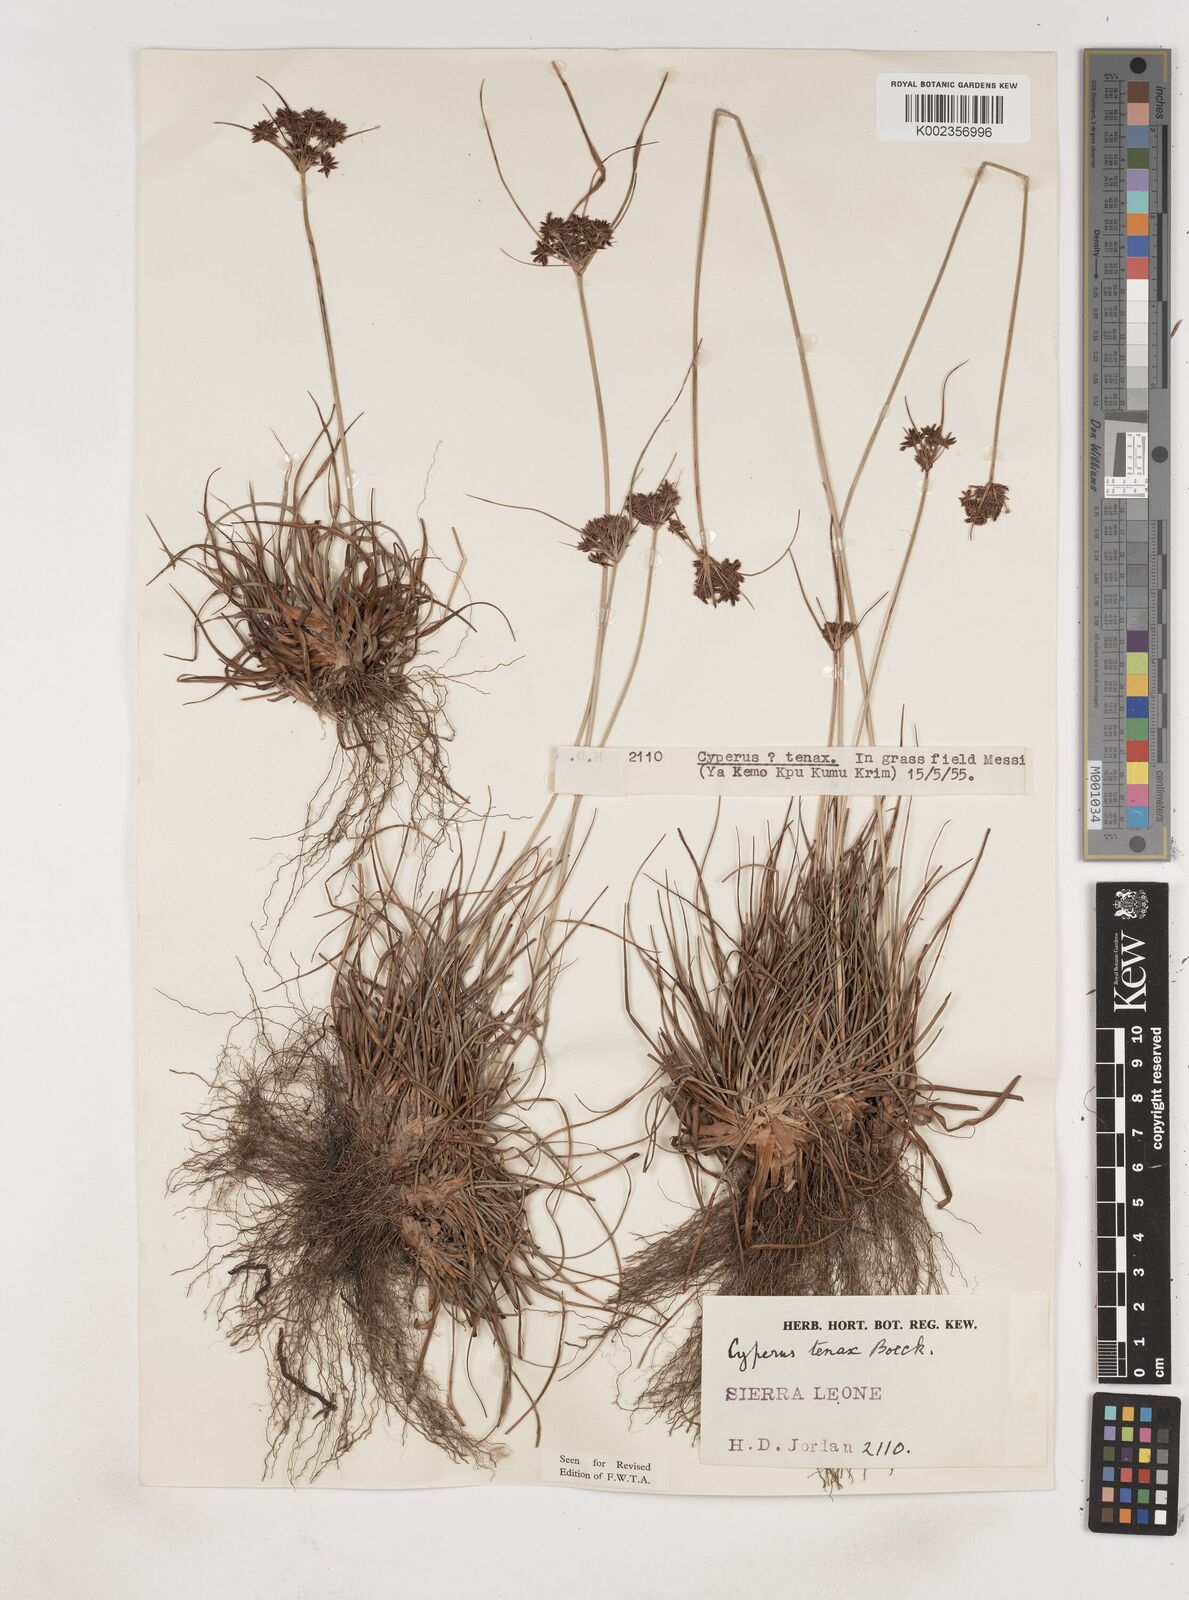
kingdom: Plantae
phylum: Tracheophyta
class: Liliopsida
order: Poales
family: Cyperaceae
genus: Cyperus
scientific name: Cyperus tenax
